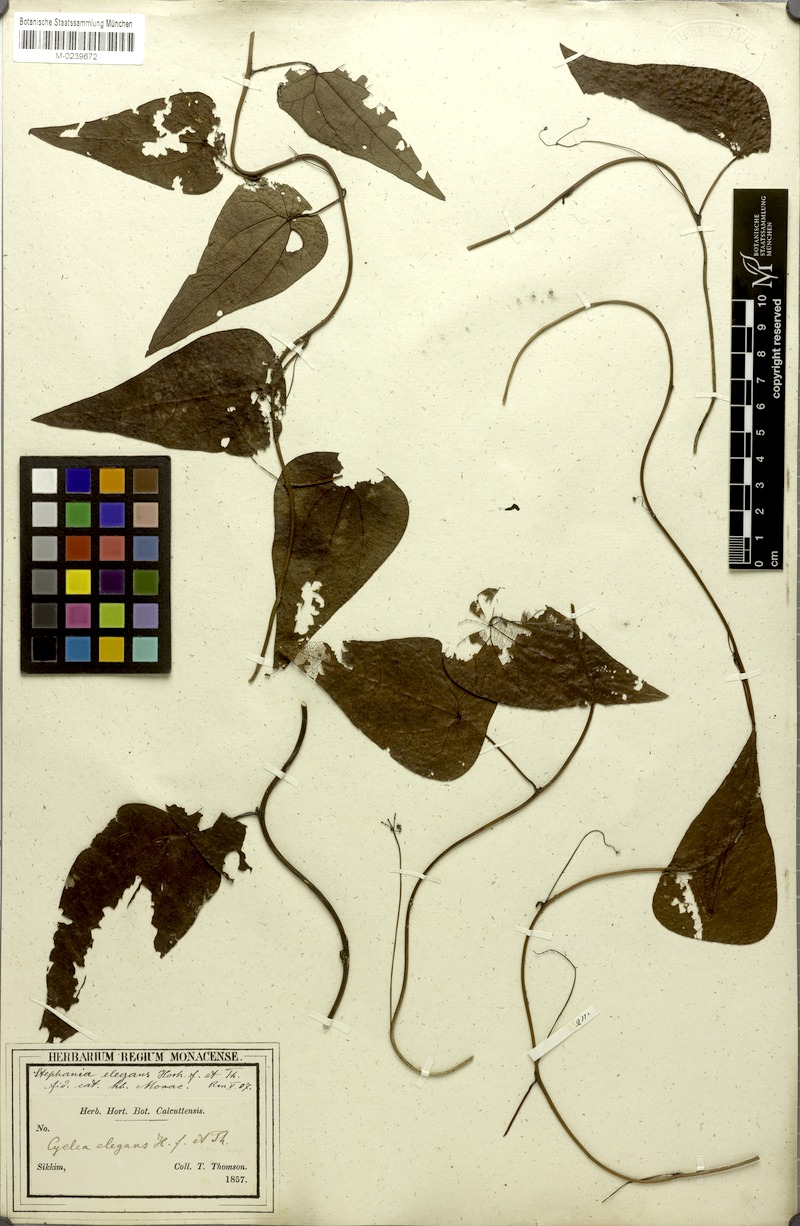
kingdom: Plantae
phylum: Tracheophyta
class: Magnoliopsida
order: Ranunculales
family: Menispermaceae
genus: Stephania
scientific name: Stephania elegans
